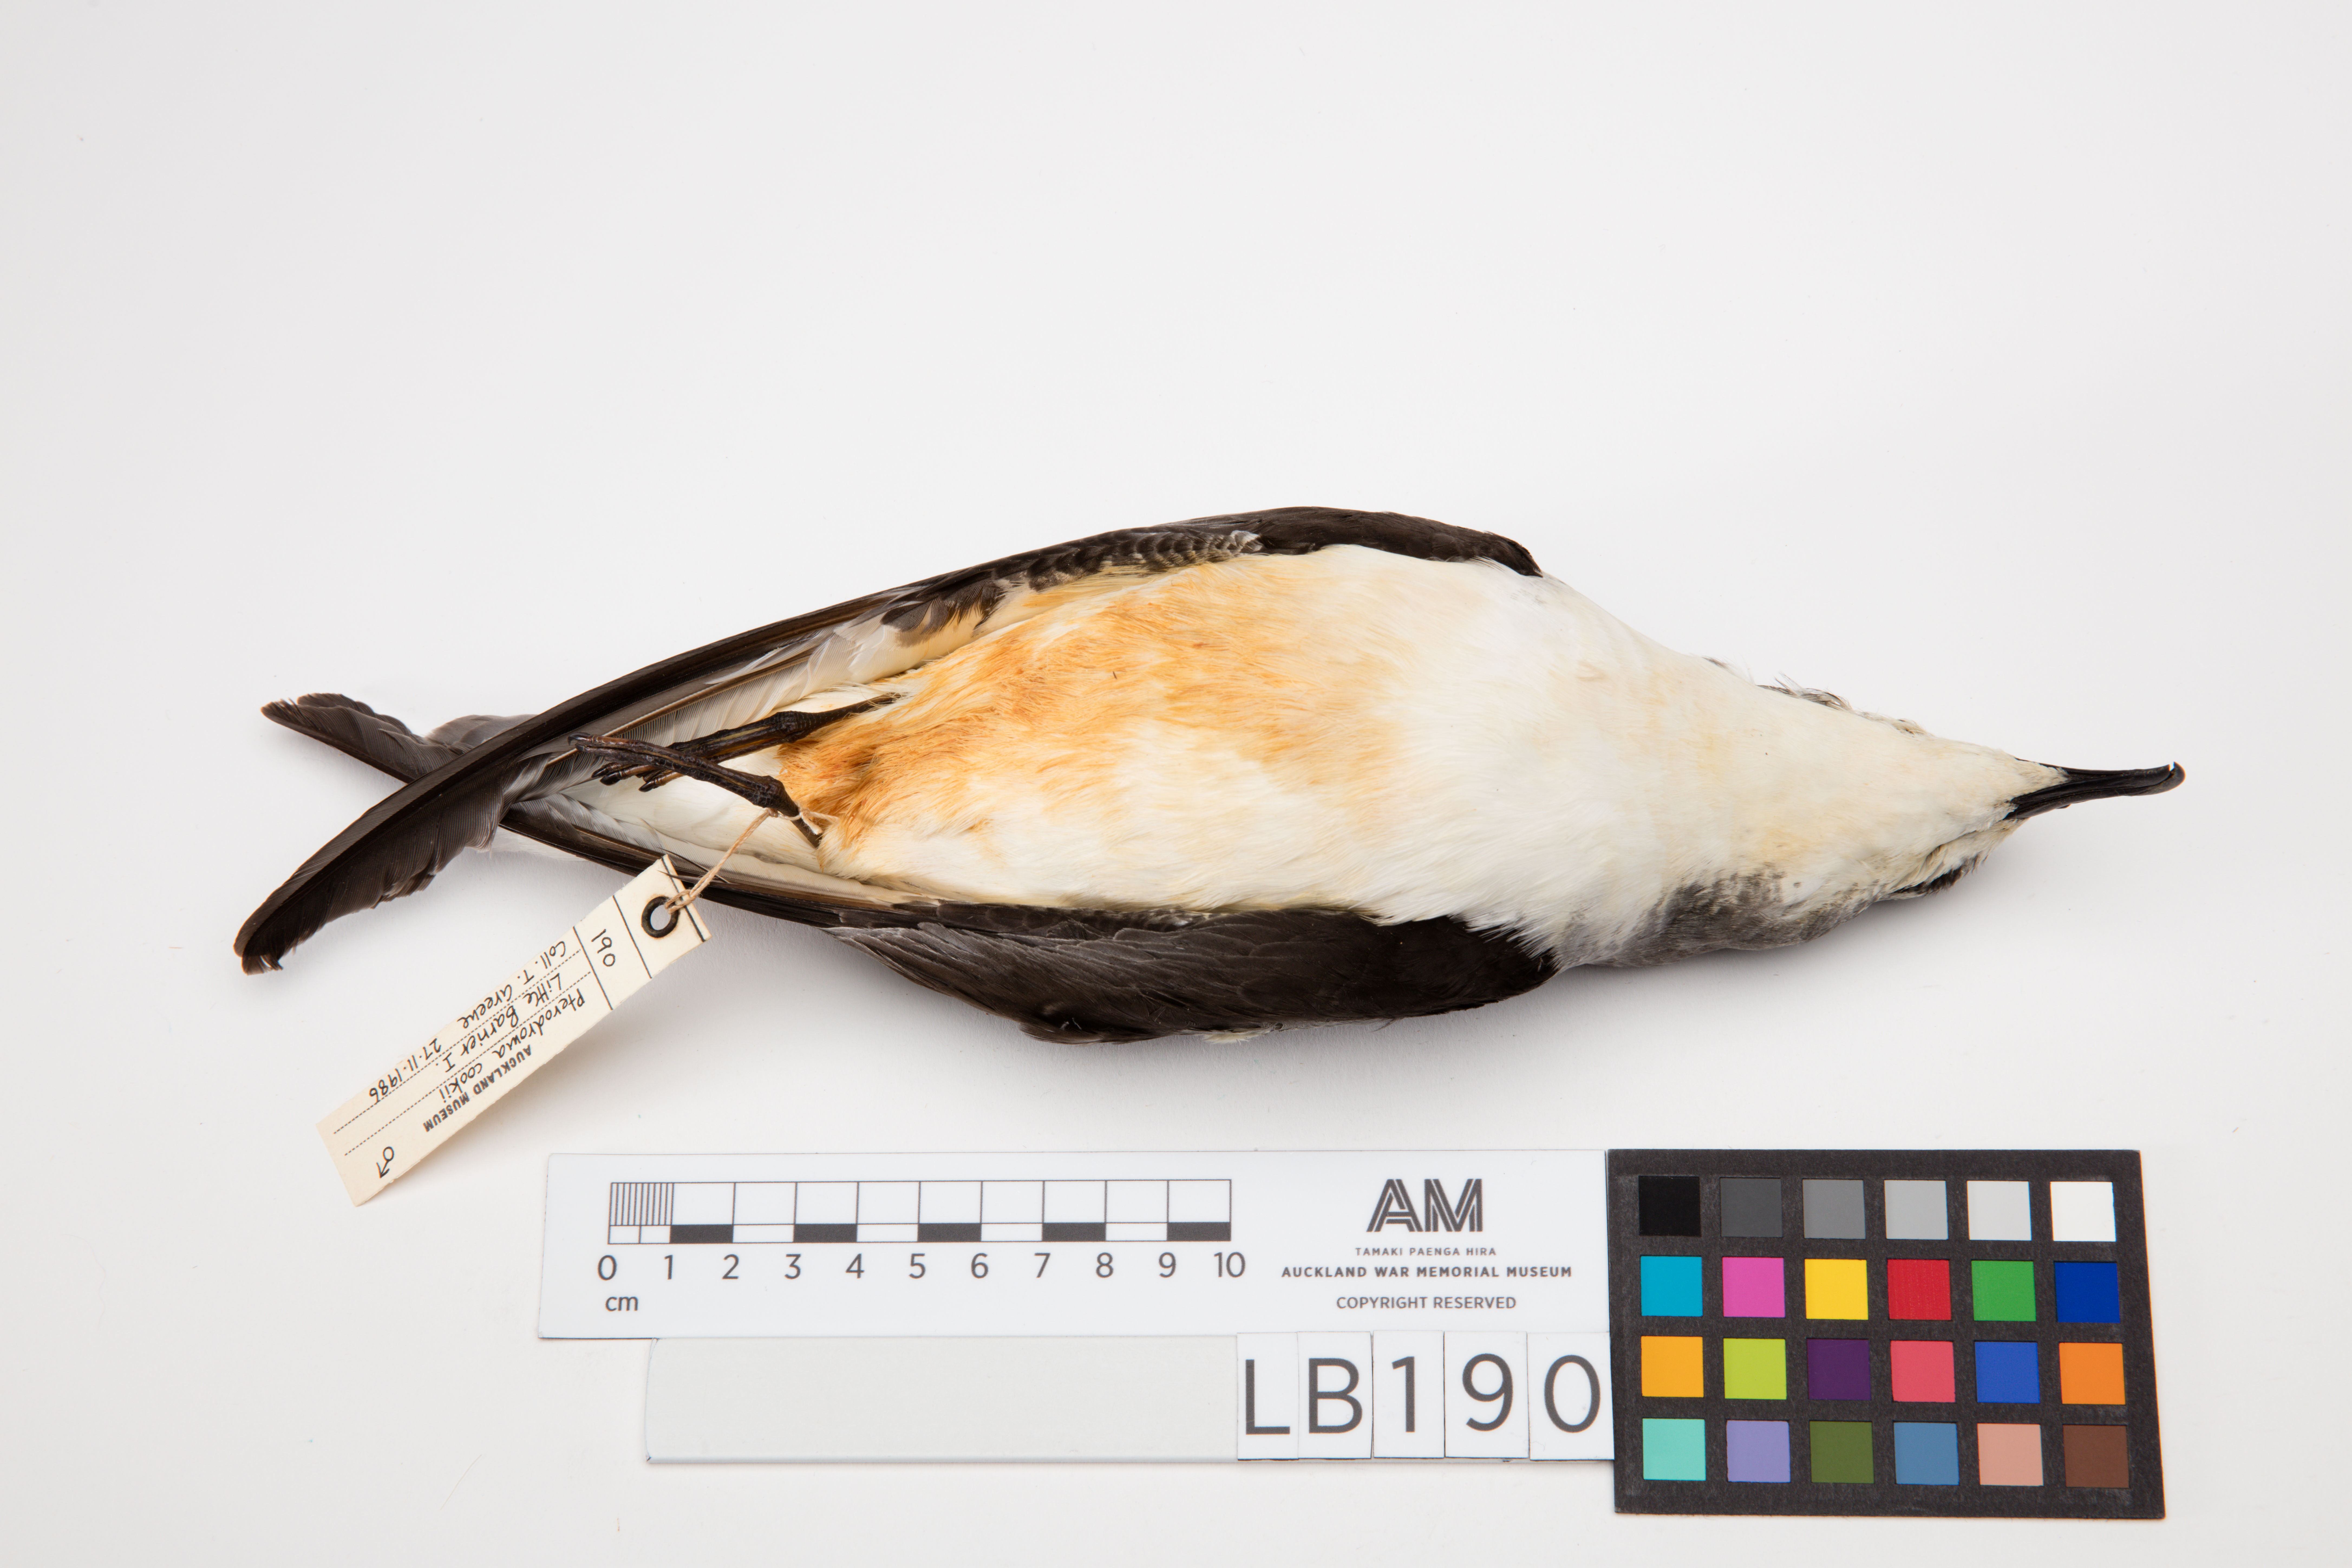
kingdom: Animalia
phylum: Chordata
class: Aves
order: Procellariiformes
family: Procellariidae
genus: Pterodroma
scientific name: Pterodroma cookii
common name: Cook's petrel
